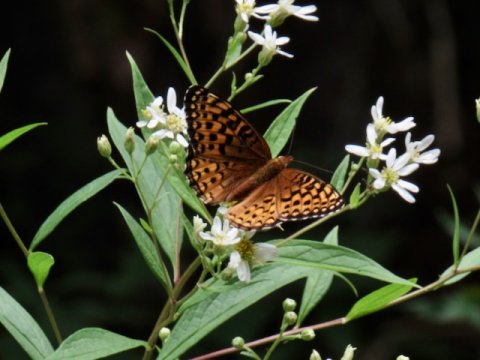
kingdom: Animalia
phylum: Arthropoda
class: Insecta
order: Lepidoptera
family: Nymphalidae
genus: Speyeria
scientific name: Speyeria atlantis
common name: Atlantis Fritillary
